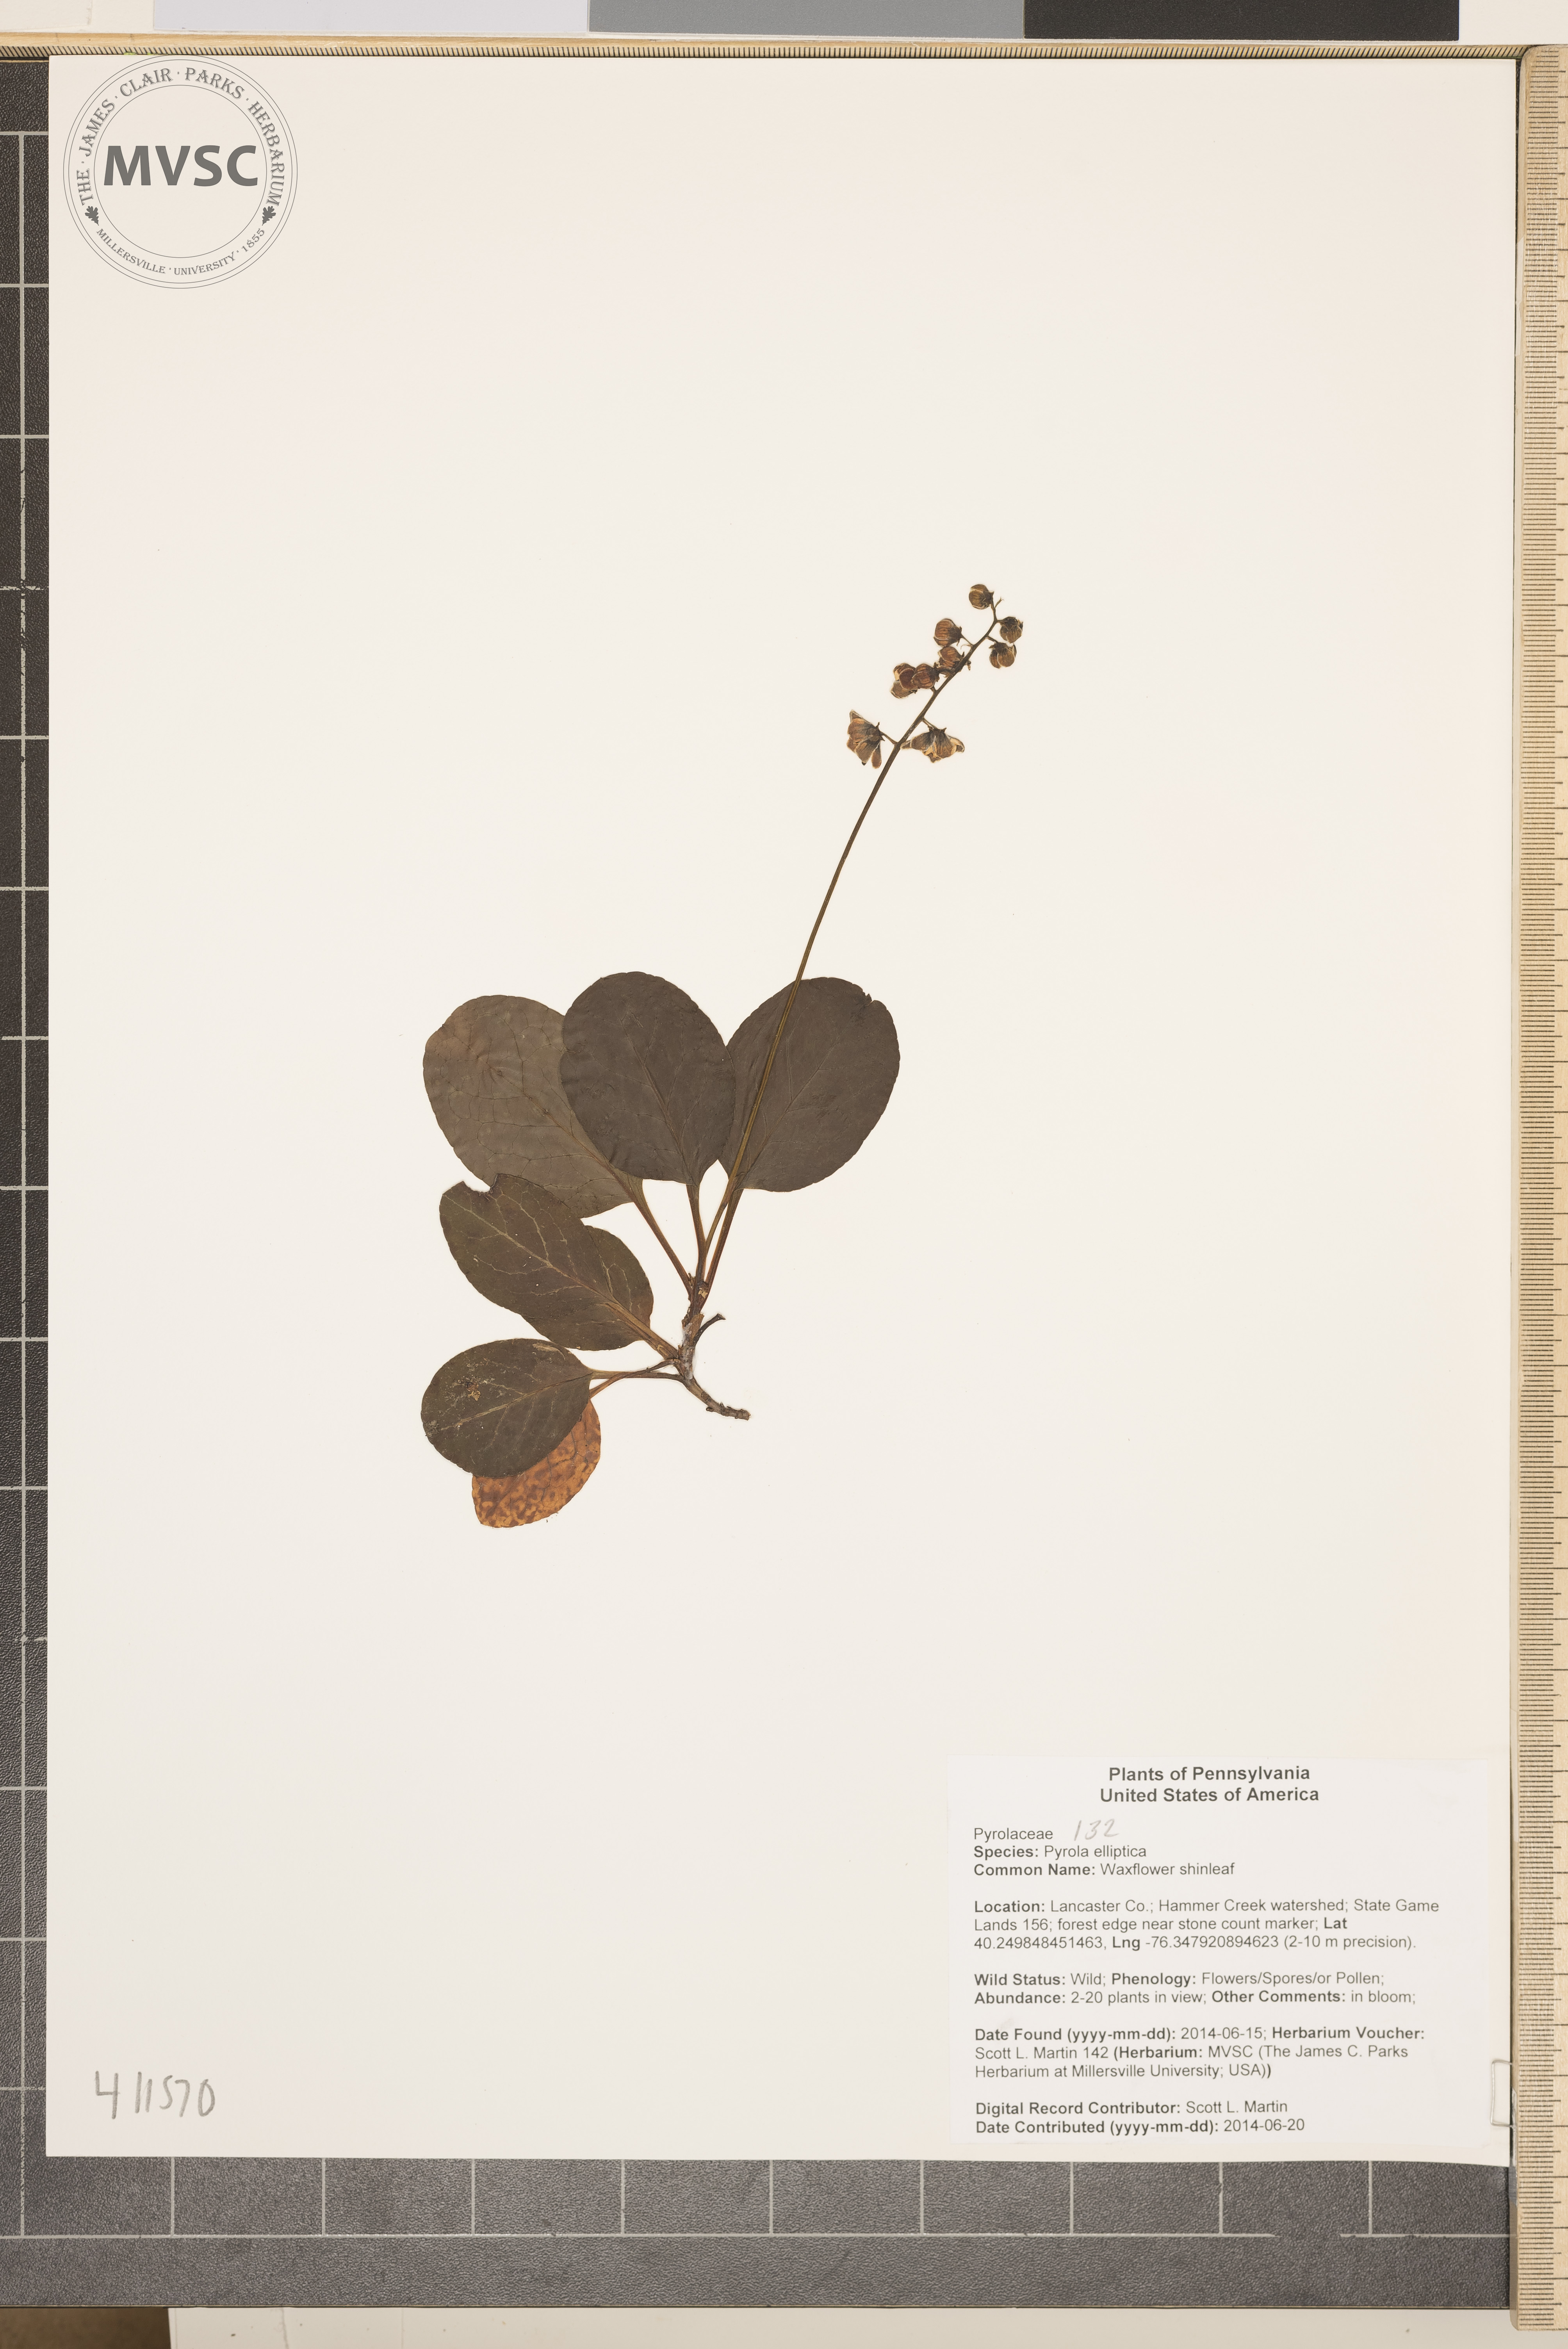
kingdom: Plantae
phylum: Tracheophyta
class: Magnoliopsida
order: Ericales
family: Ericaceae
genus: Pyrola
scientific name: Pyrola elliptica
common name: Waxflower shinleaf
